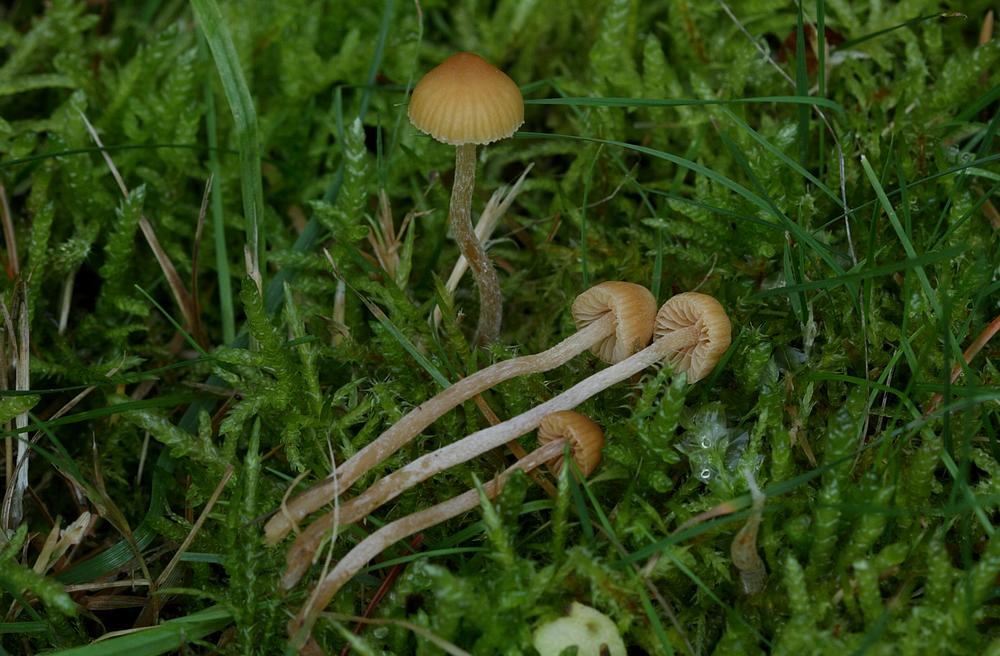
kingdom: Fungi
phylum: Basidiomycota
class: Agaricomycetes
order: Agaricales
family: Hymenogastraceae
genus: Galerina
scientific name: Galerina clavata
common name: kær-hjelmhat
